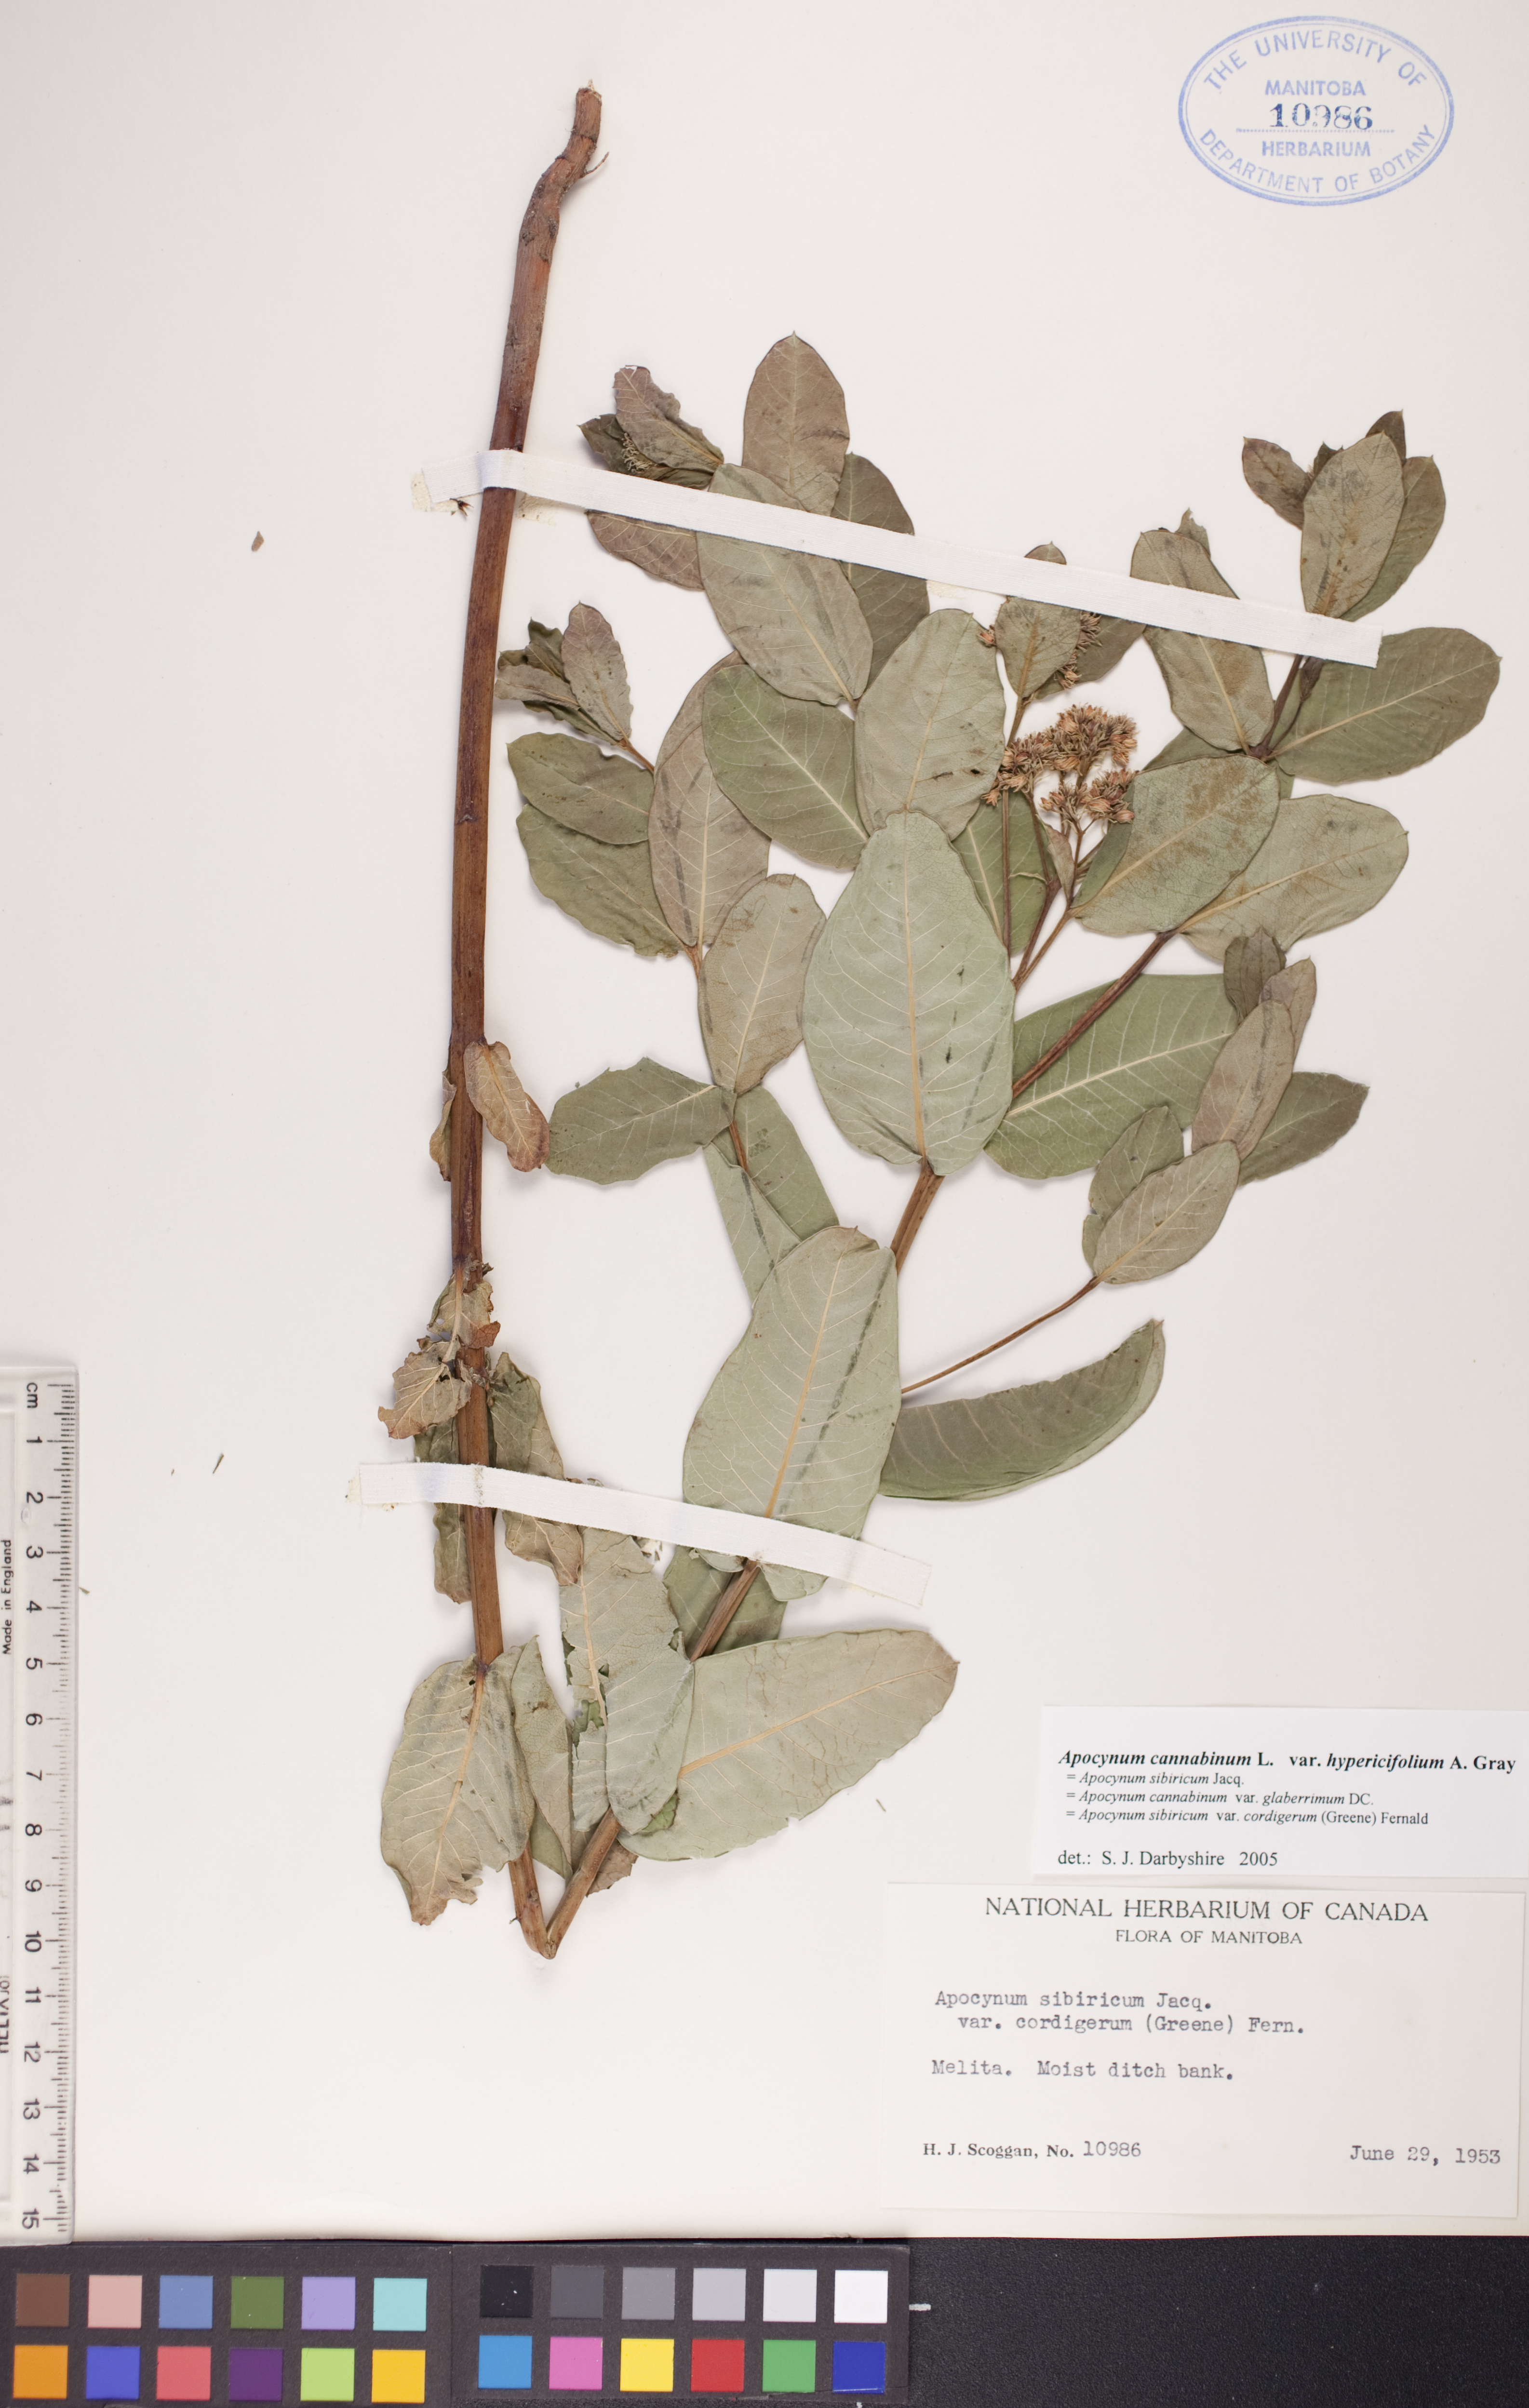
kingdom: Plantae
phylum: Tracheophyta
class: Magnoliopsida
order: Gentianales
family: Apocynaceae
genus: Apocynum
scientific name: Apocynum cannabinum
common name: Hemp dogbane
